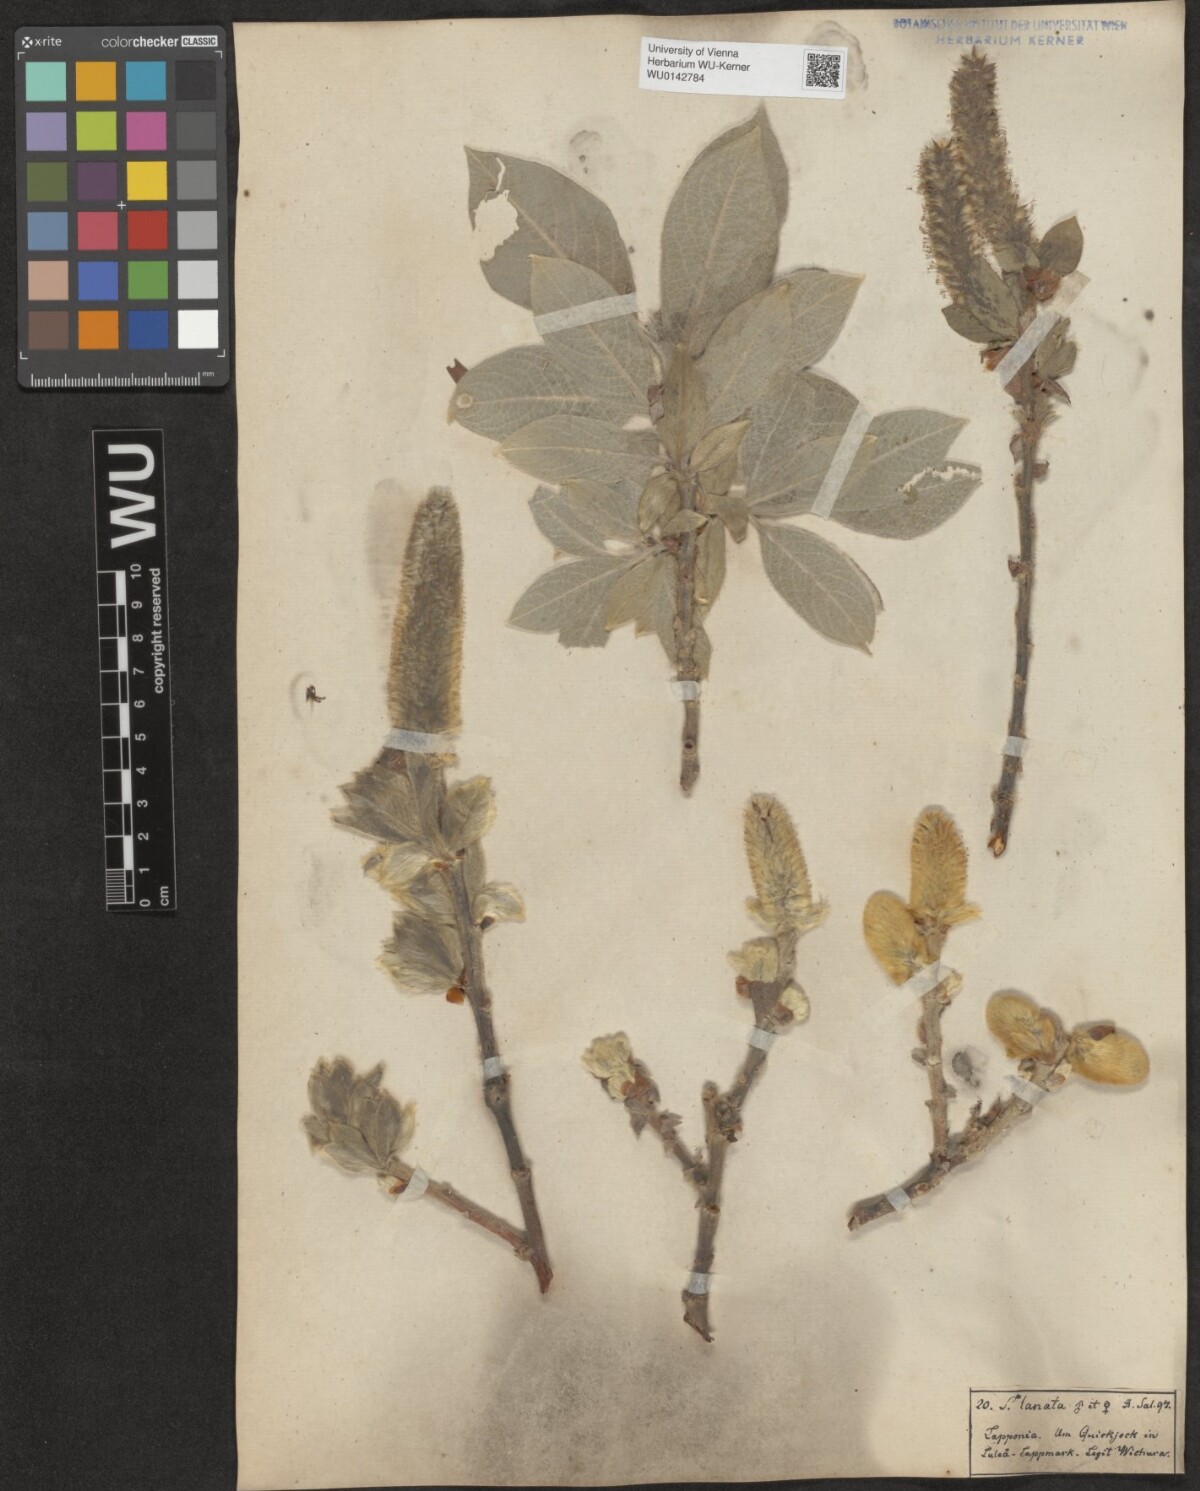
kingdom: Plantae
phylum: Tracheophyta
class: Magnoliopsida
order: Malpighiales
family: Salicaceae
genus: Salix
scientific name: Salix lanata
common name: Woolly willow
